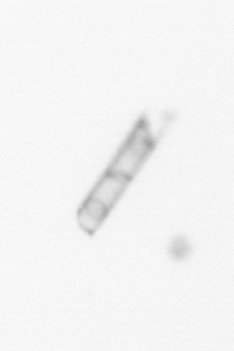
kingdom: Chromista
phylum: Ochrophyta
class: Bacillariophyceae
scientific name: Bacillariophyceae
